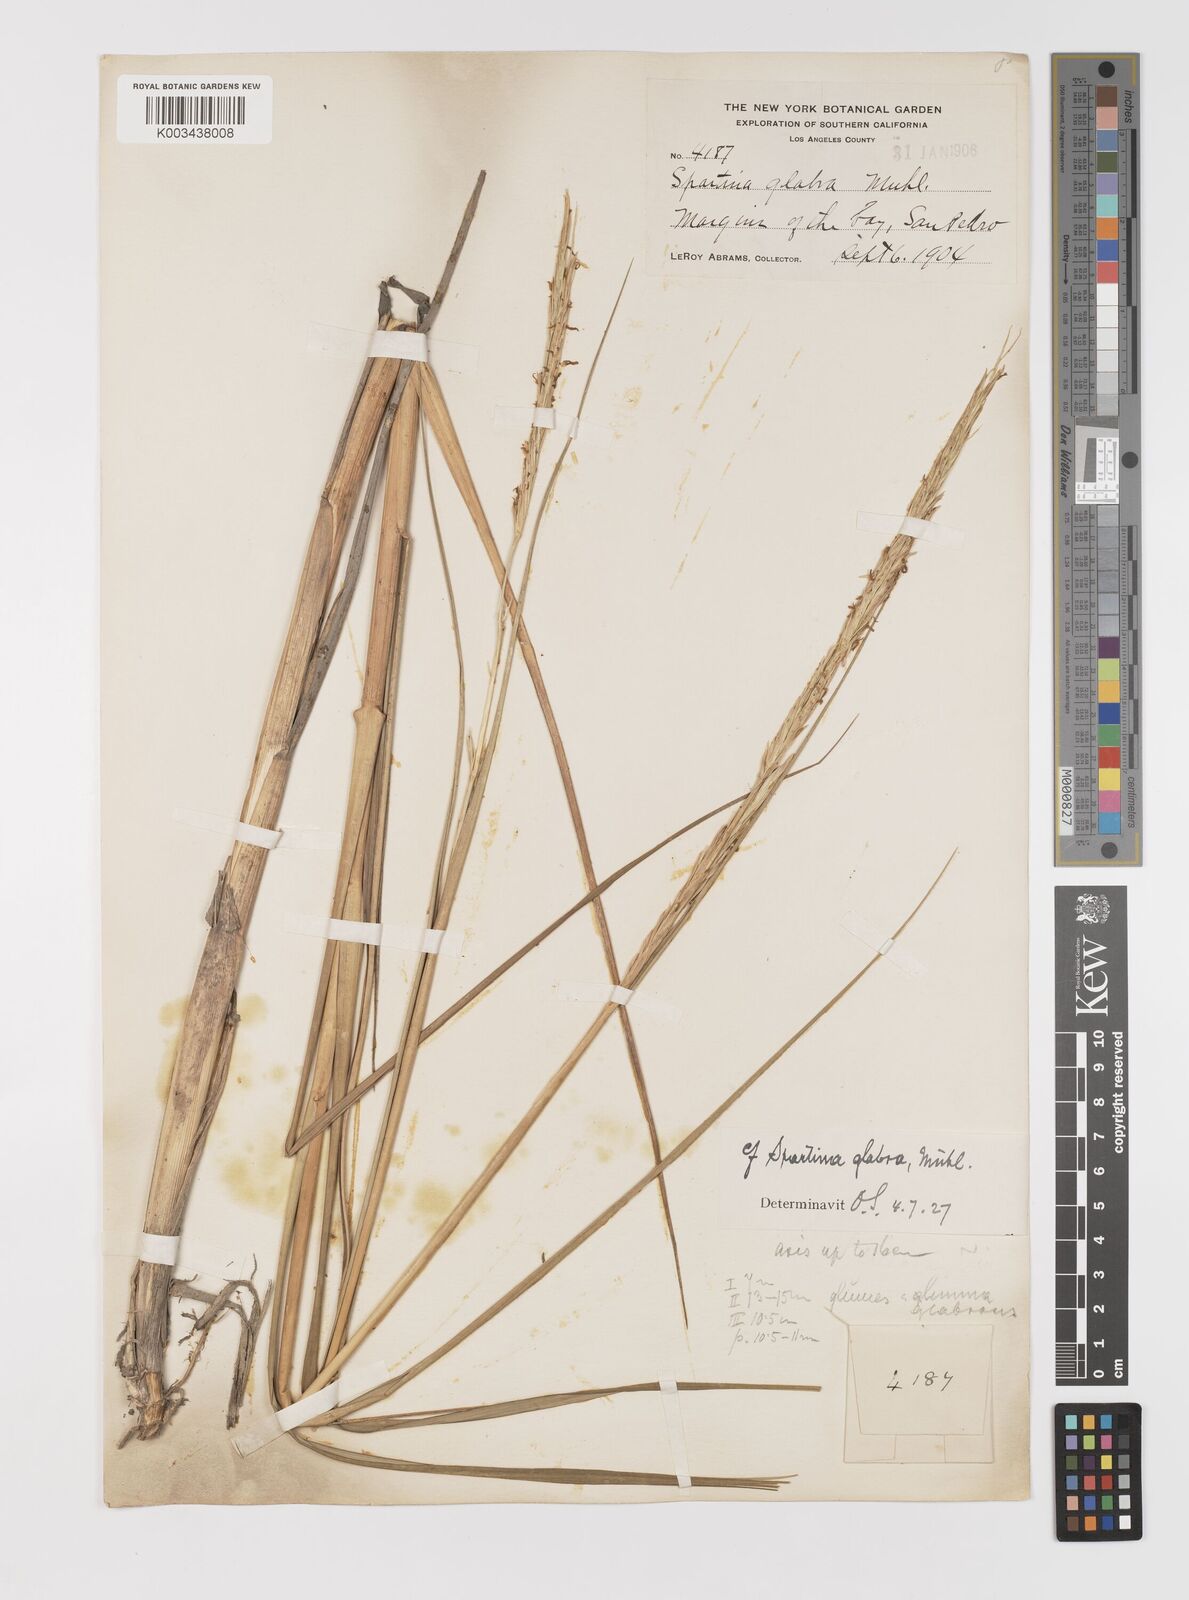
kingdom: Plantae
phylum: Tracheophyta
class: Liliopsida
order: Poales
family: Poaceae
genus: Sporobolus
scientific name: Sporobolus foliosus
